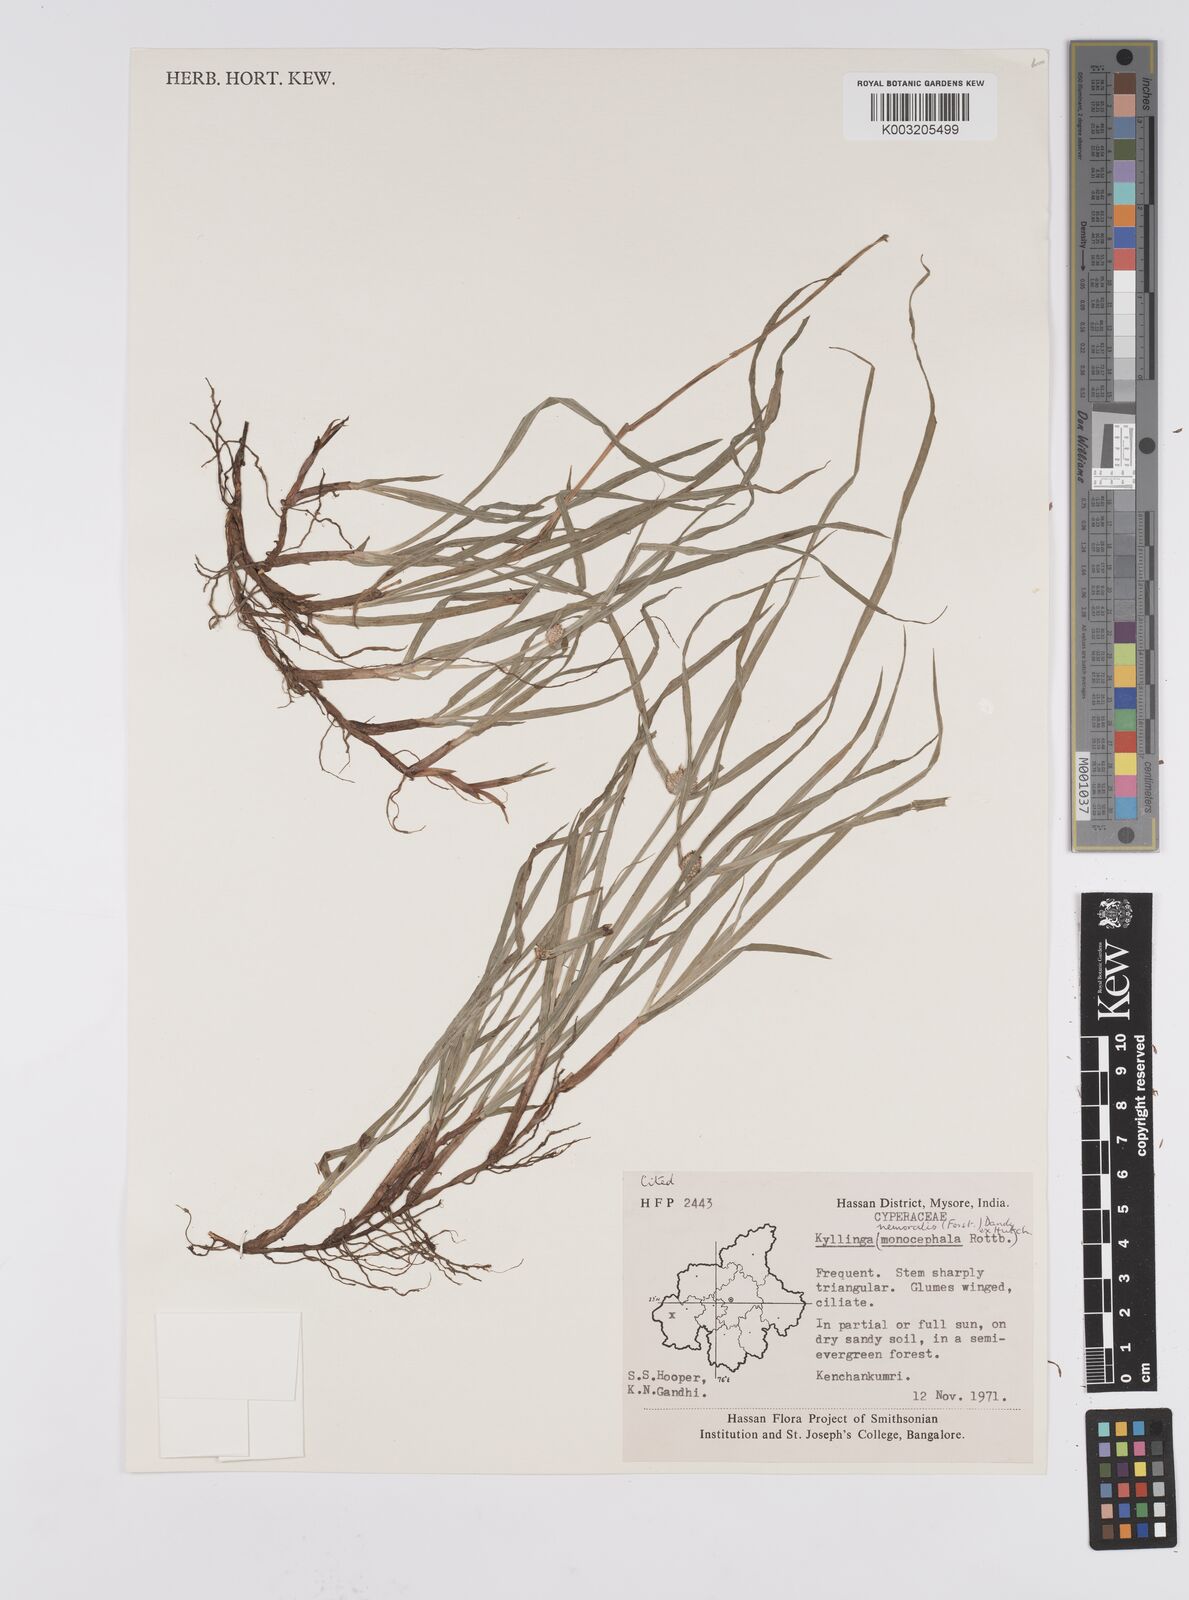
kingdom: Plantae
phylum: Tracheophyta
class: Liliopsida
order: Poales
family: Cyperaceae
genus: Cyperus
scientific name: Cyperus nemoralis
